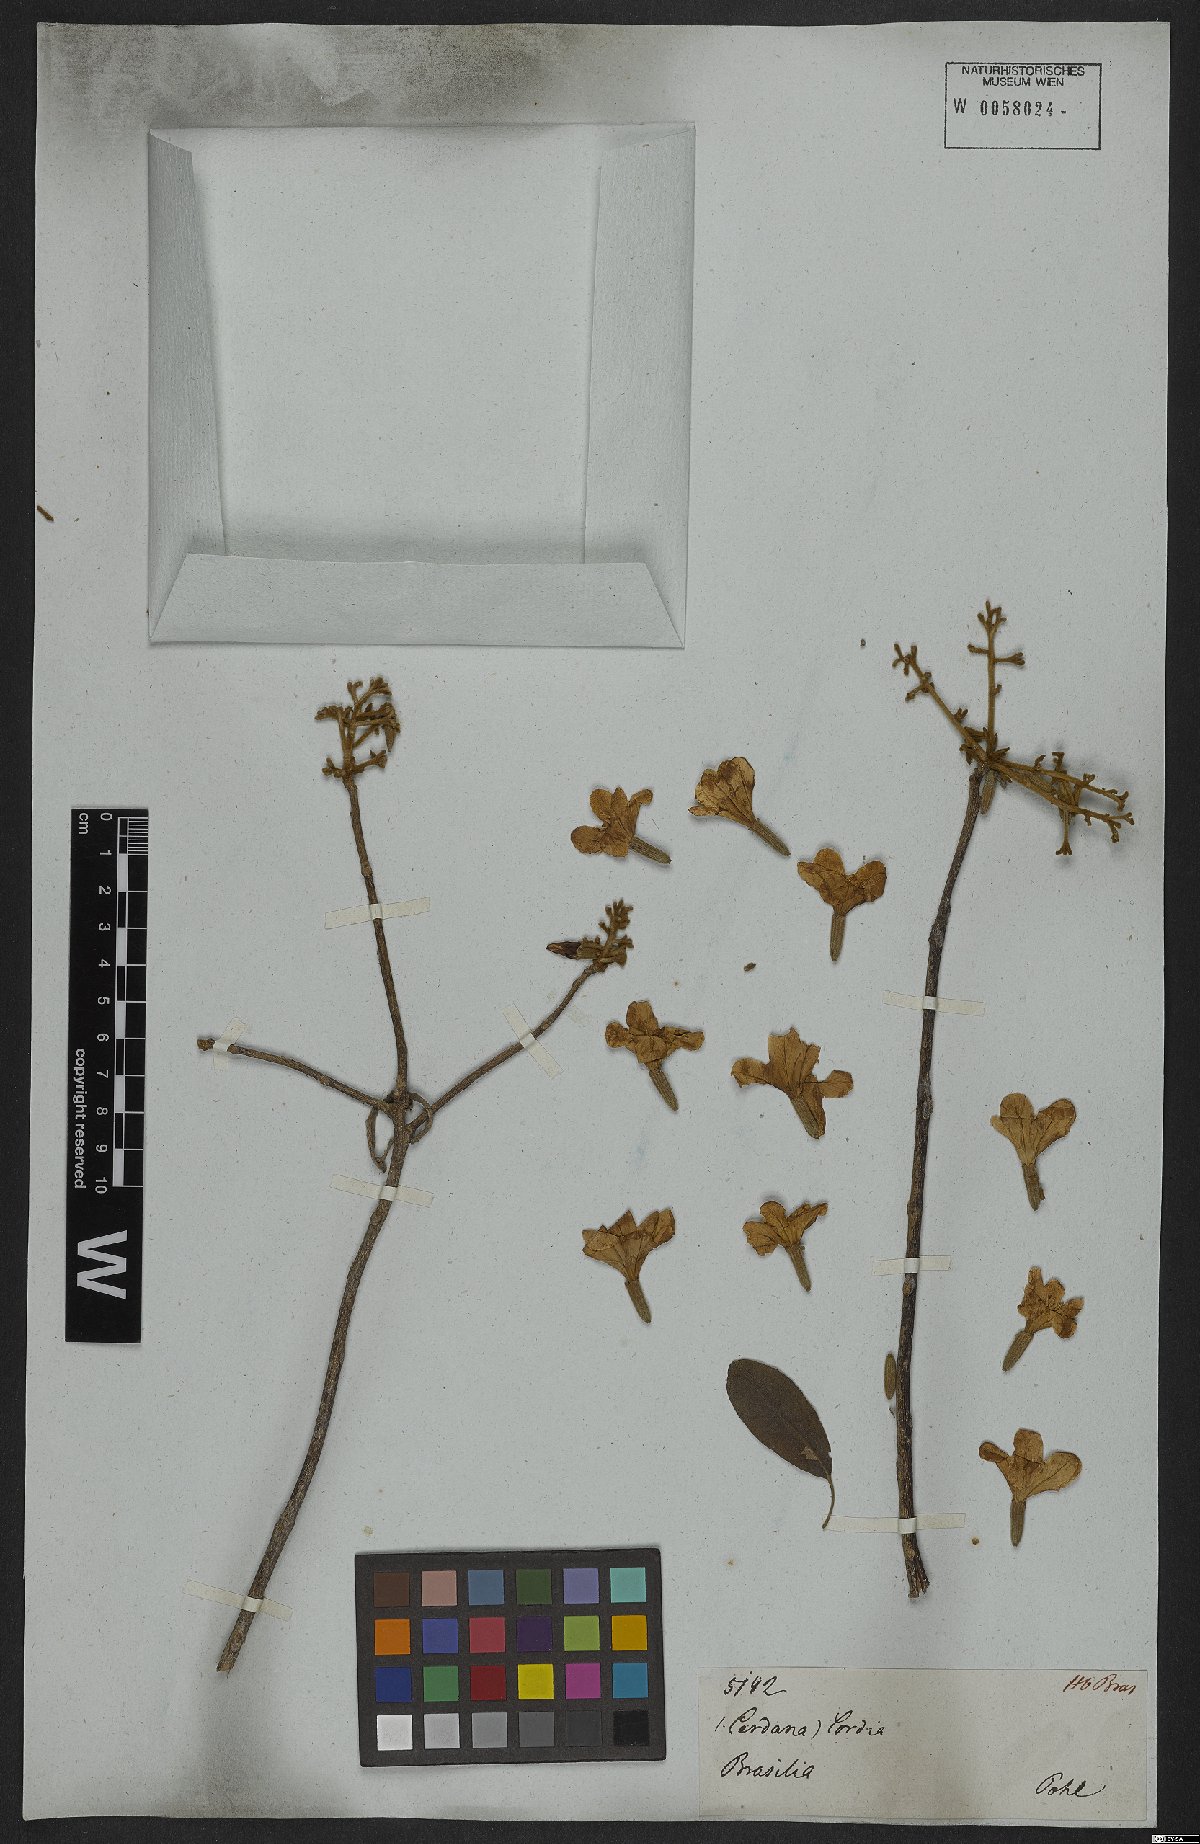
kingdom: Plantae
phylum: Tracheophyta
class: Magnoliopsida
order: Boraginales
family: Cordiaceae
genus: Cordia
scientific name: Cordia alliodora
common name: Spanish elm
